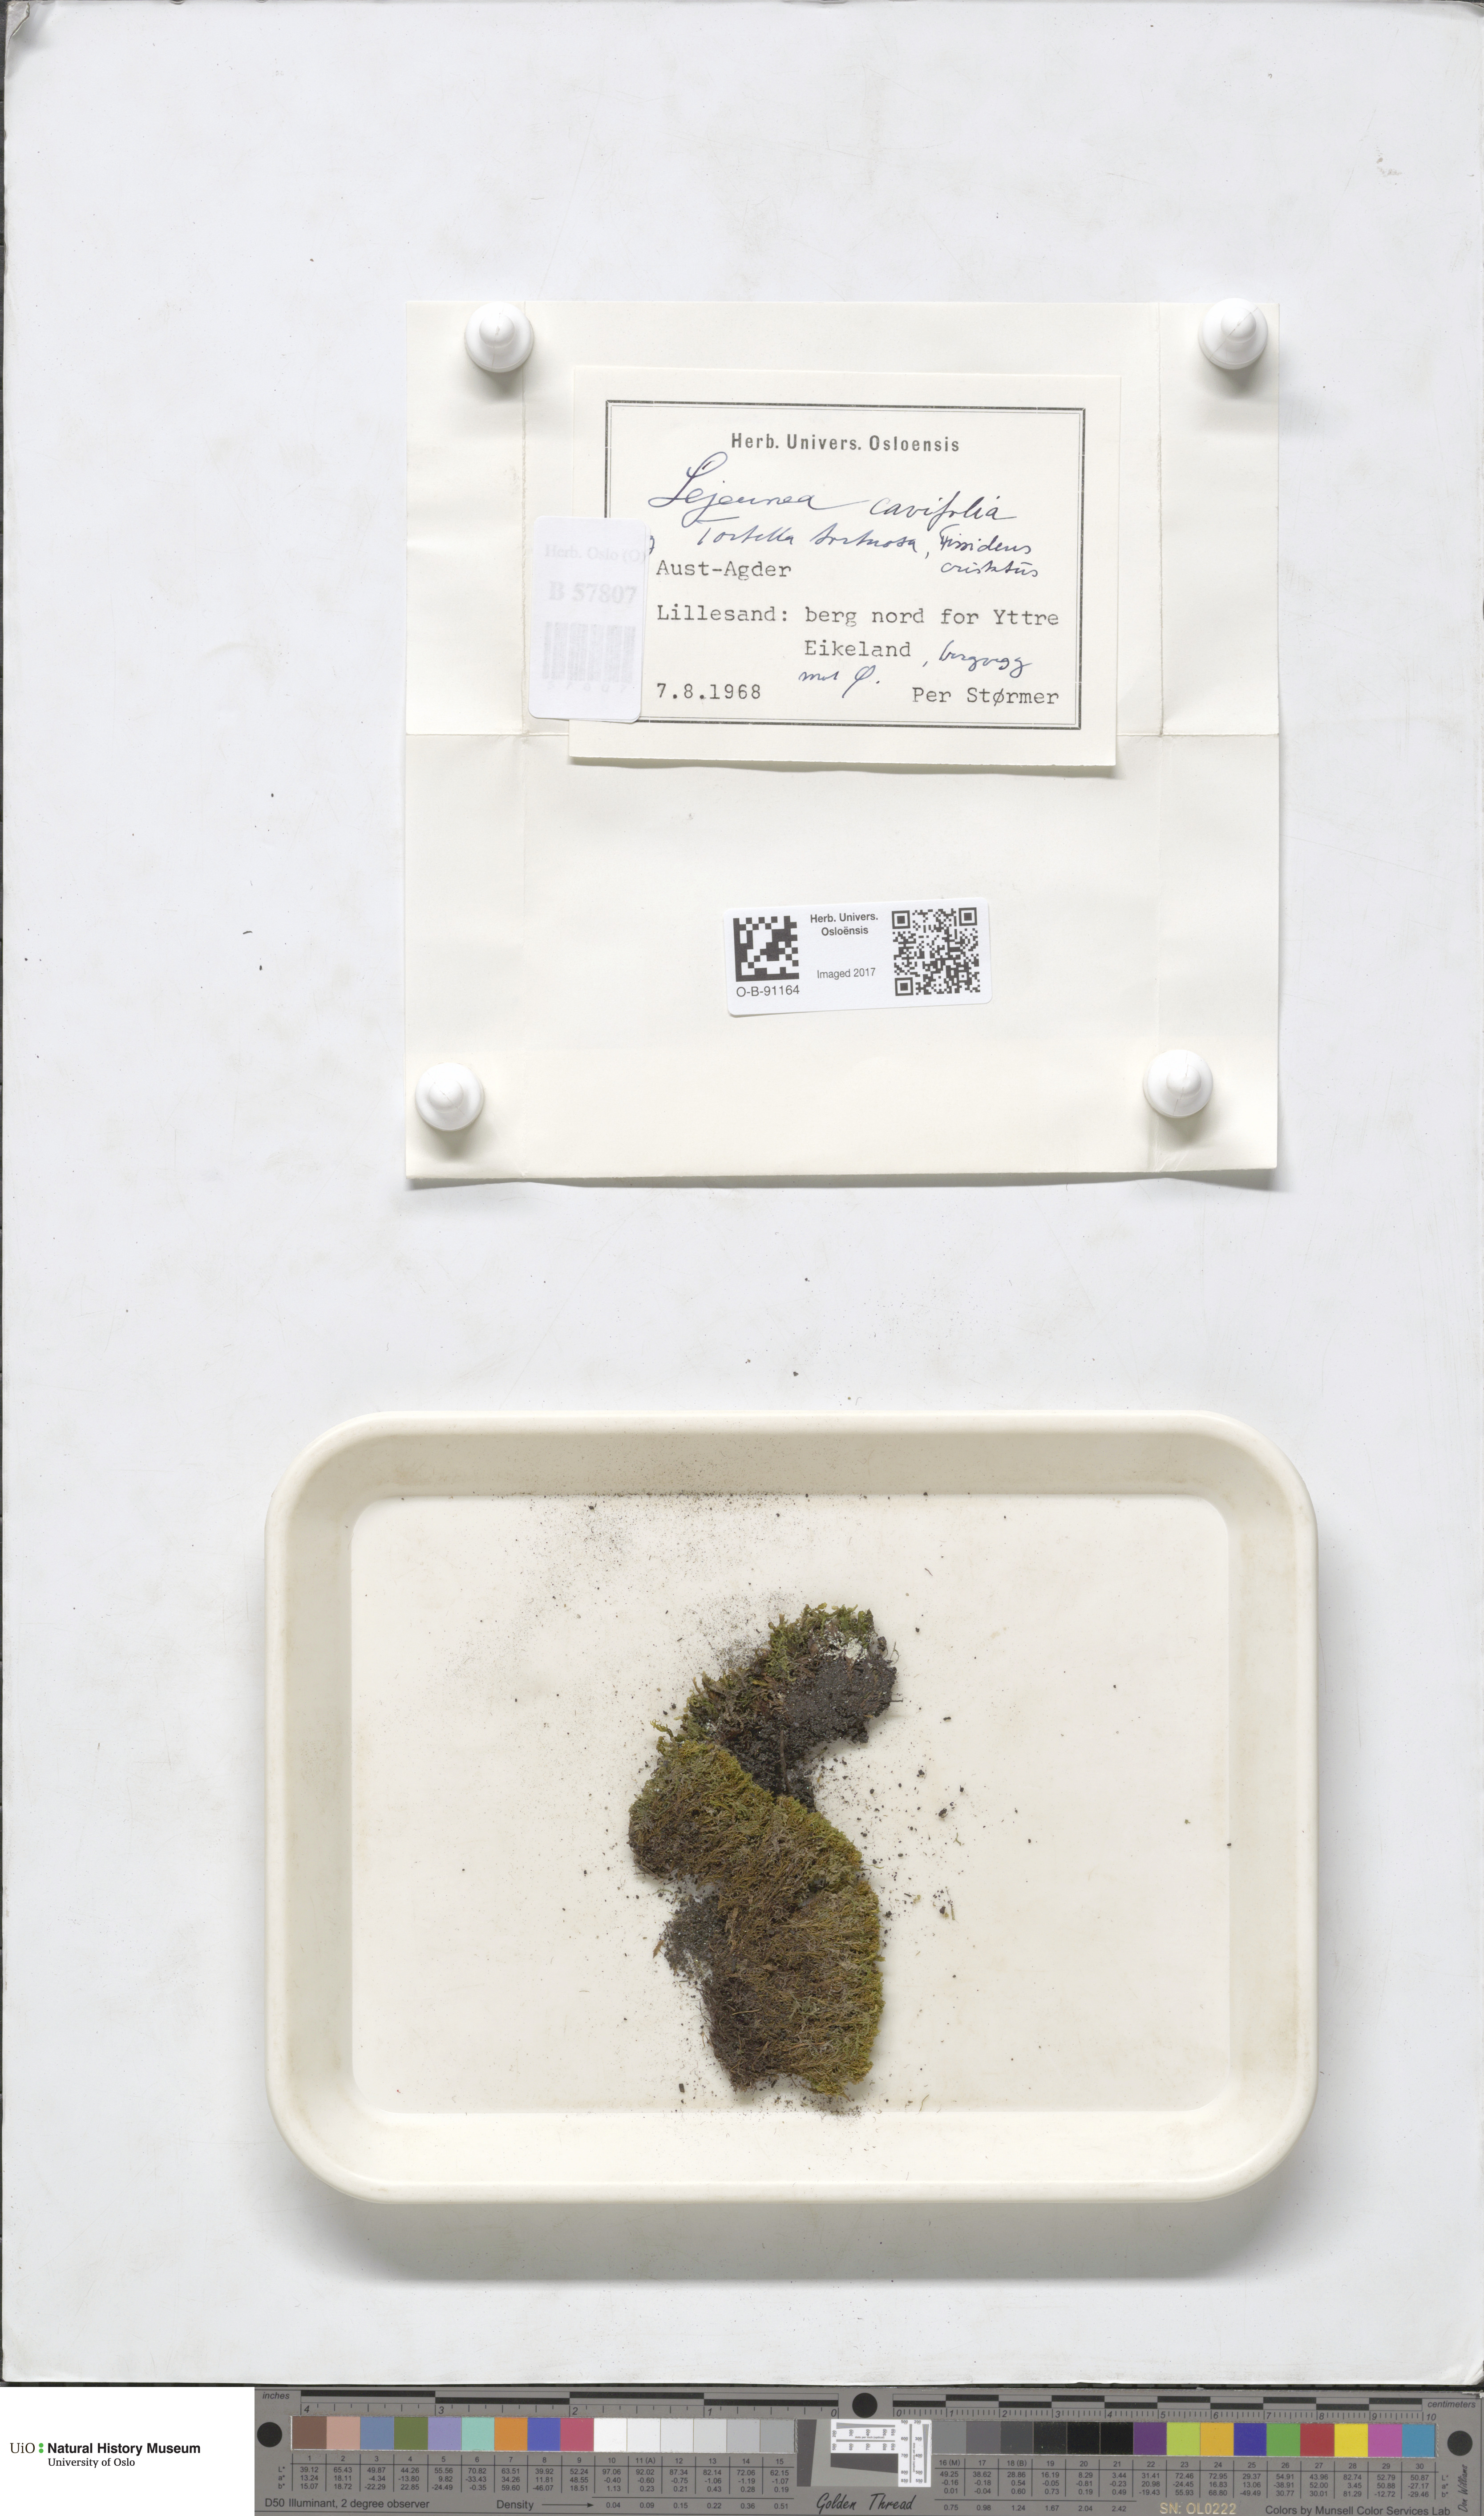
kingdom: Plantae
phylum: Marchantiophyta
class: Jungermanniopsida
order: Porellales
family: Lejeuneaceae
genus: Lejeunea
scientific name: Lejeunea cavifolia
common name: Least pouncewort
